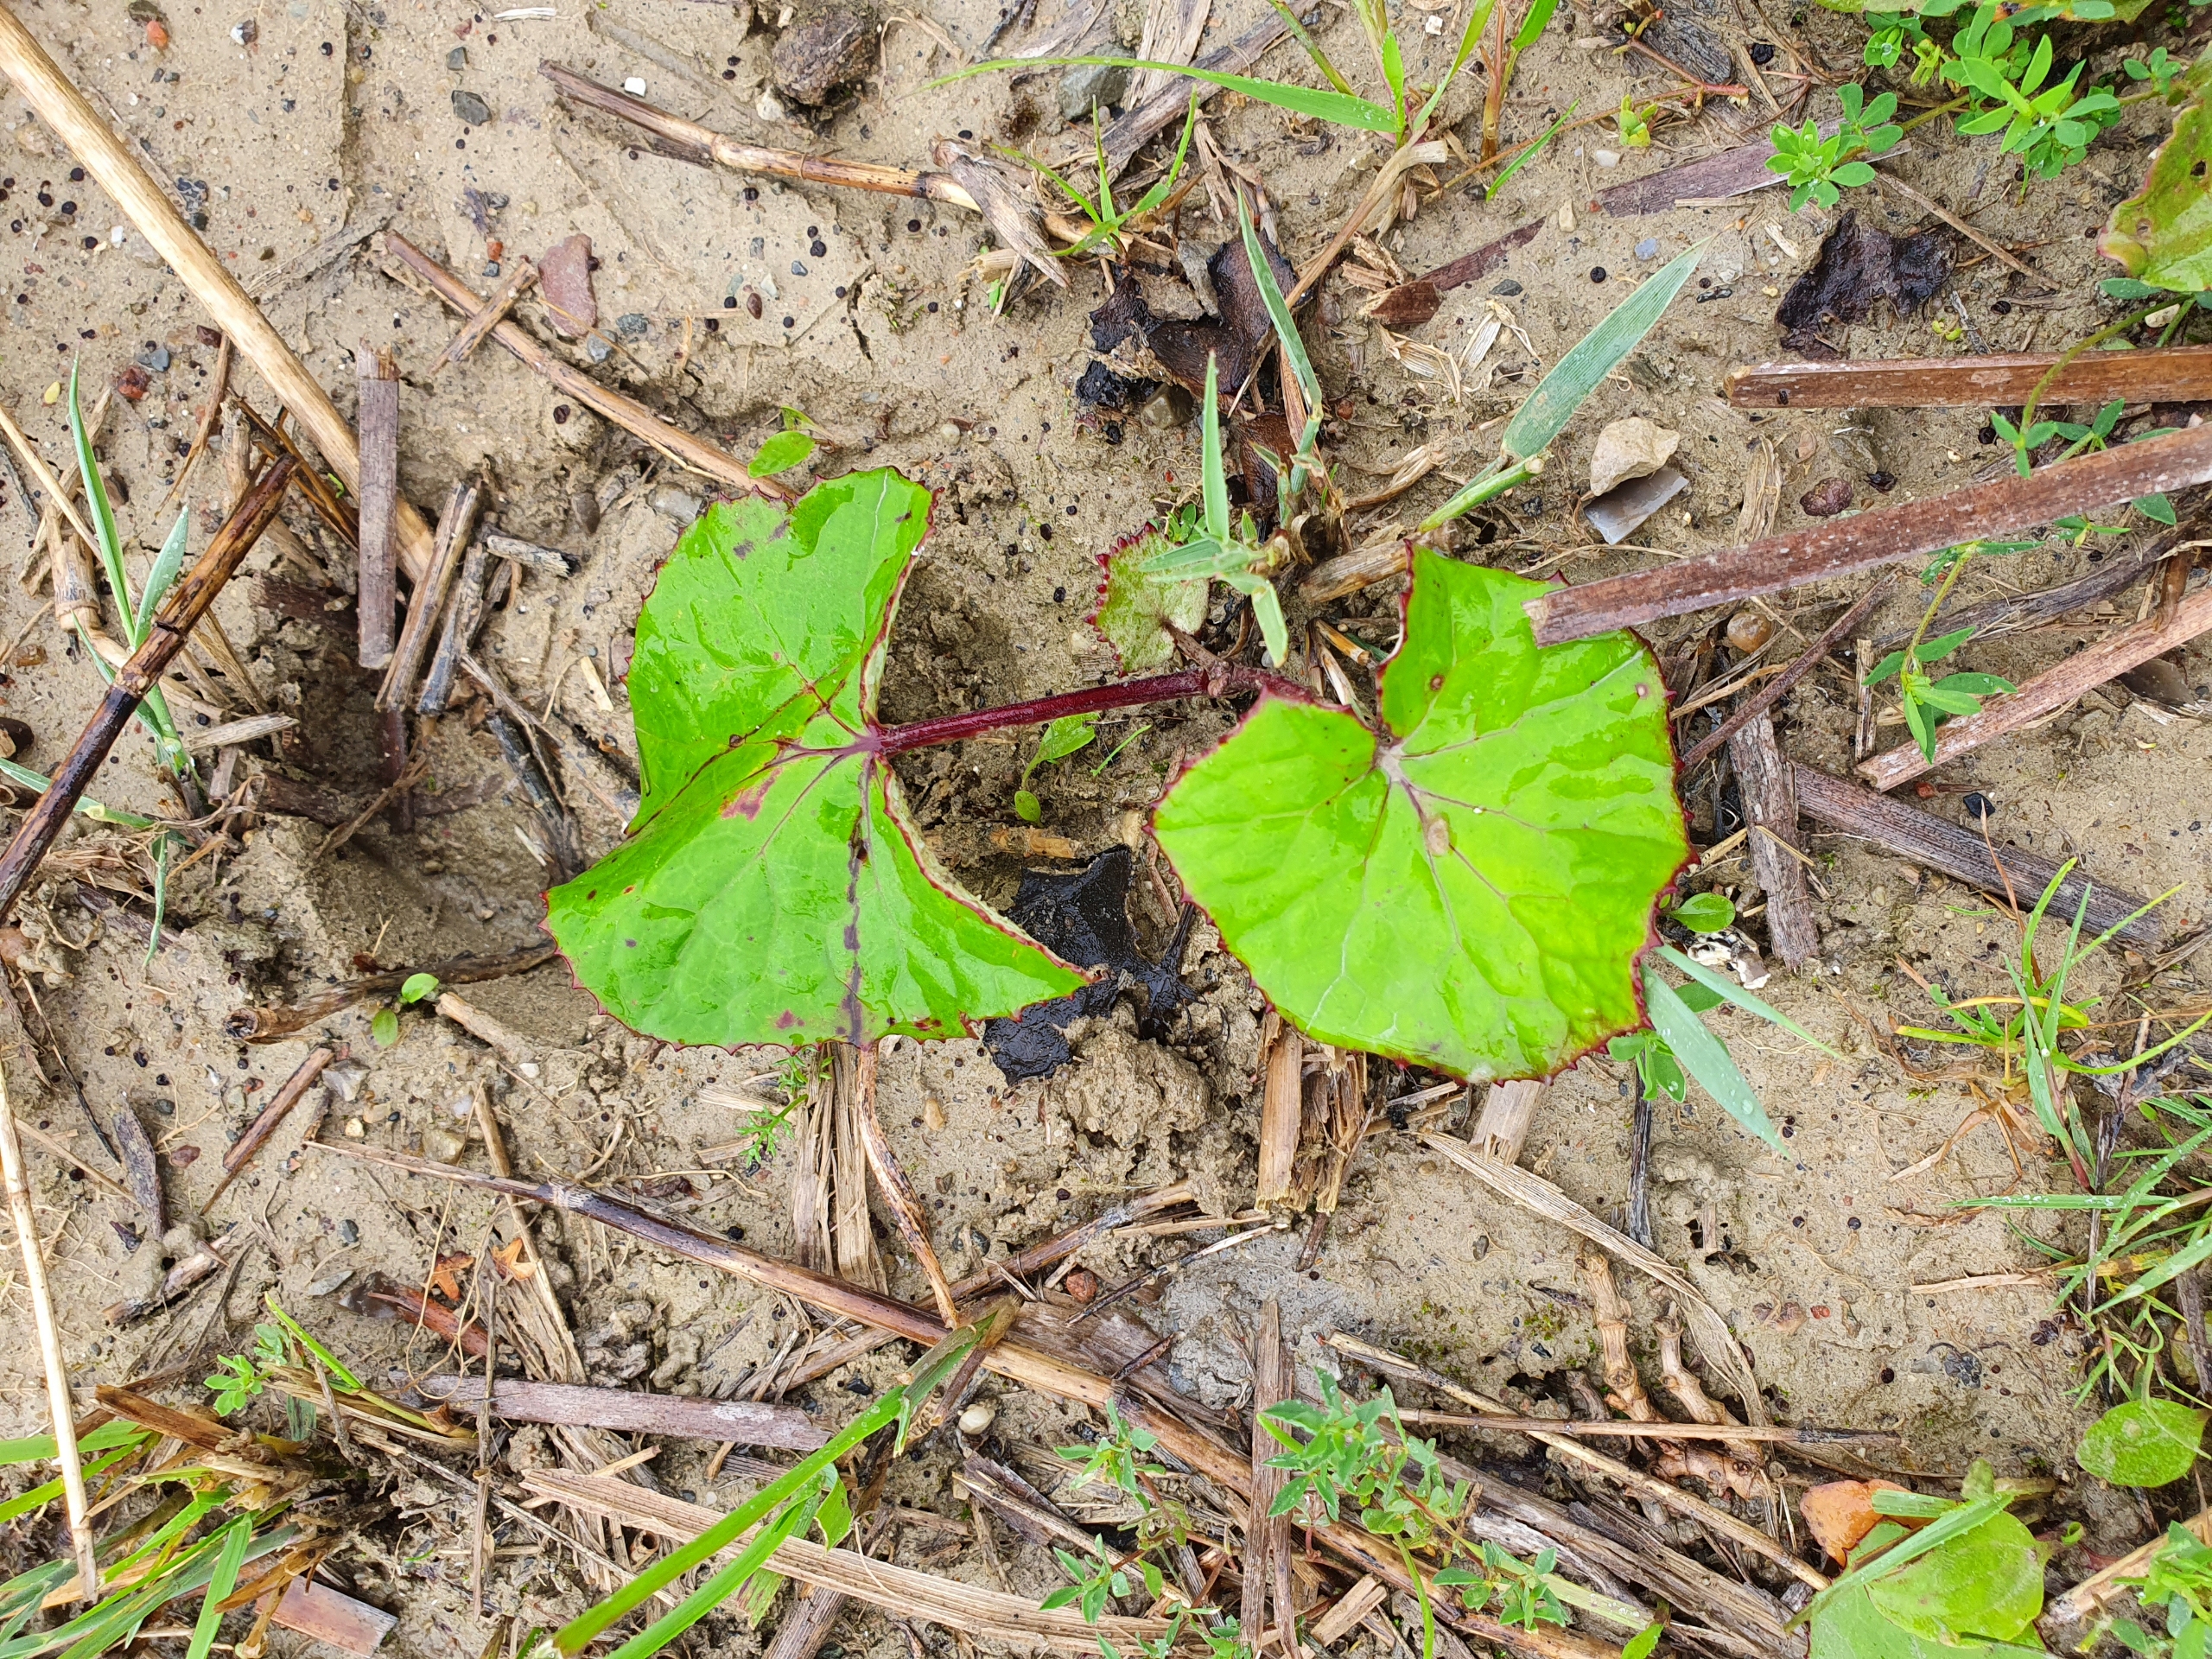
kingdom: Plantae
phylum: Tracheophyta
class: Magnoliopsida
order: Asterales
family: Asteraceae
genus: Tussilago
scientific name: Tussilago farfara
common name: Følfod
